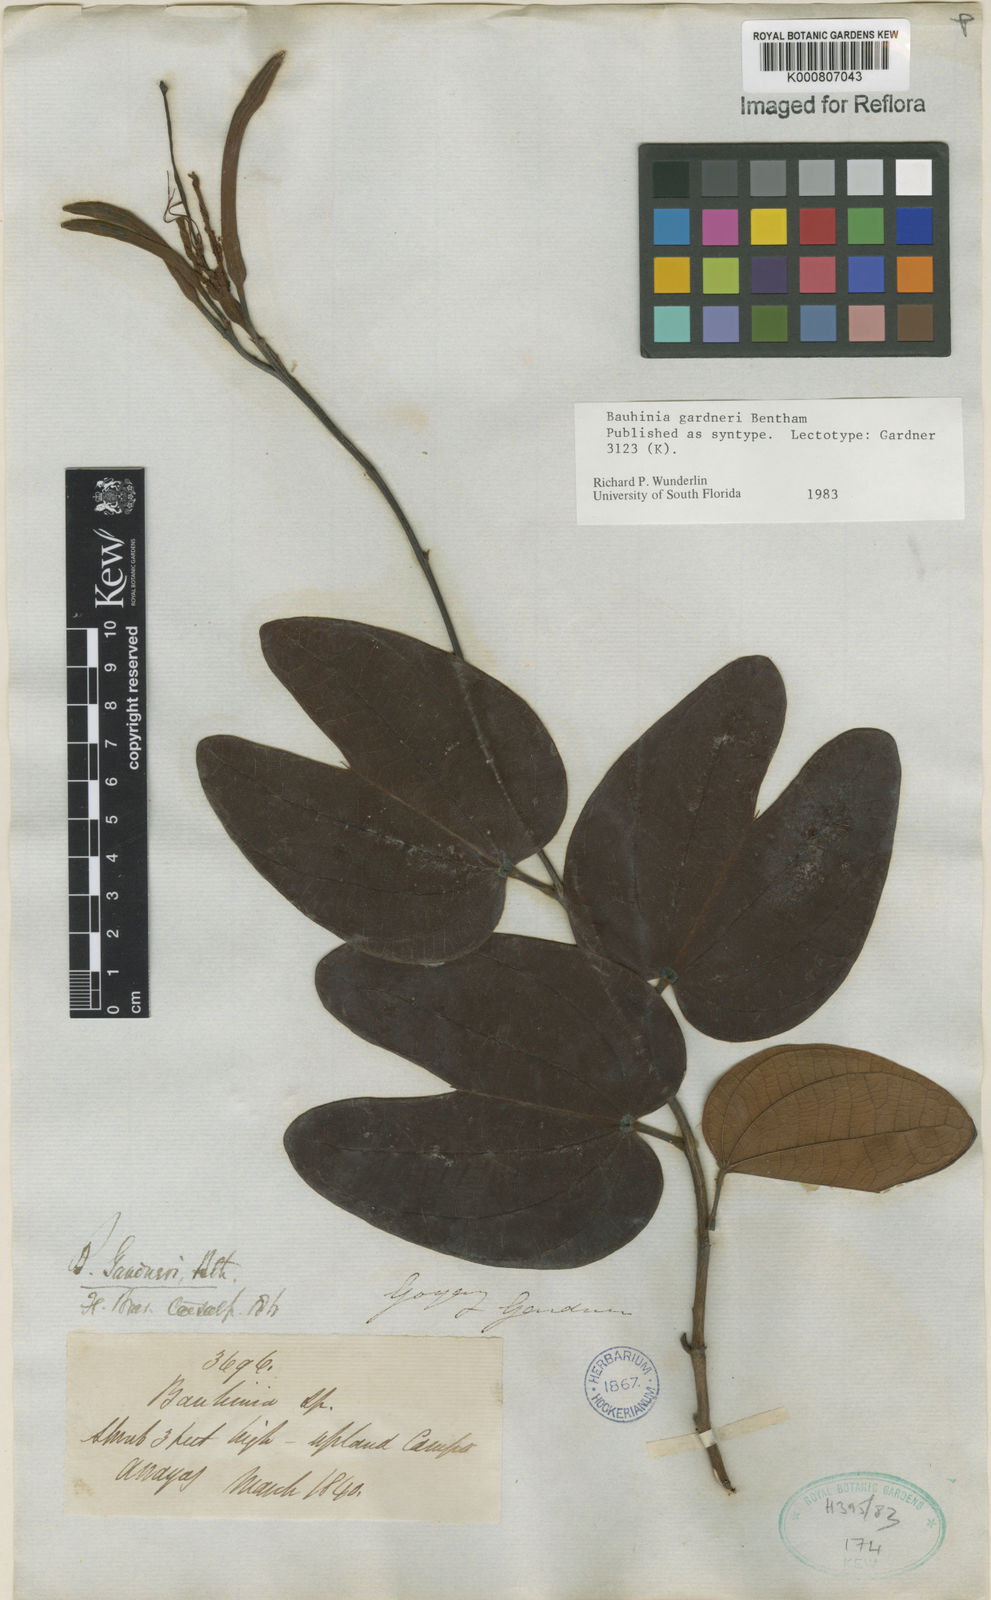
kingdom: Plantae
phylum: Tracheophyta
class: Magnoliopsida
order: Fabales
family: Fabaceae
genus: Bauhinia
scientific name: Bauhinia gardneri
